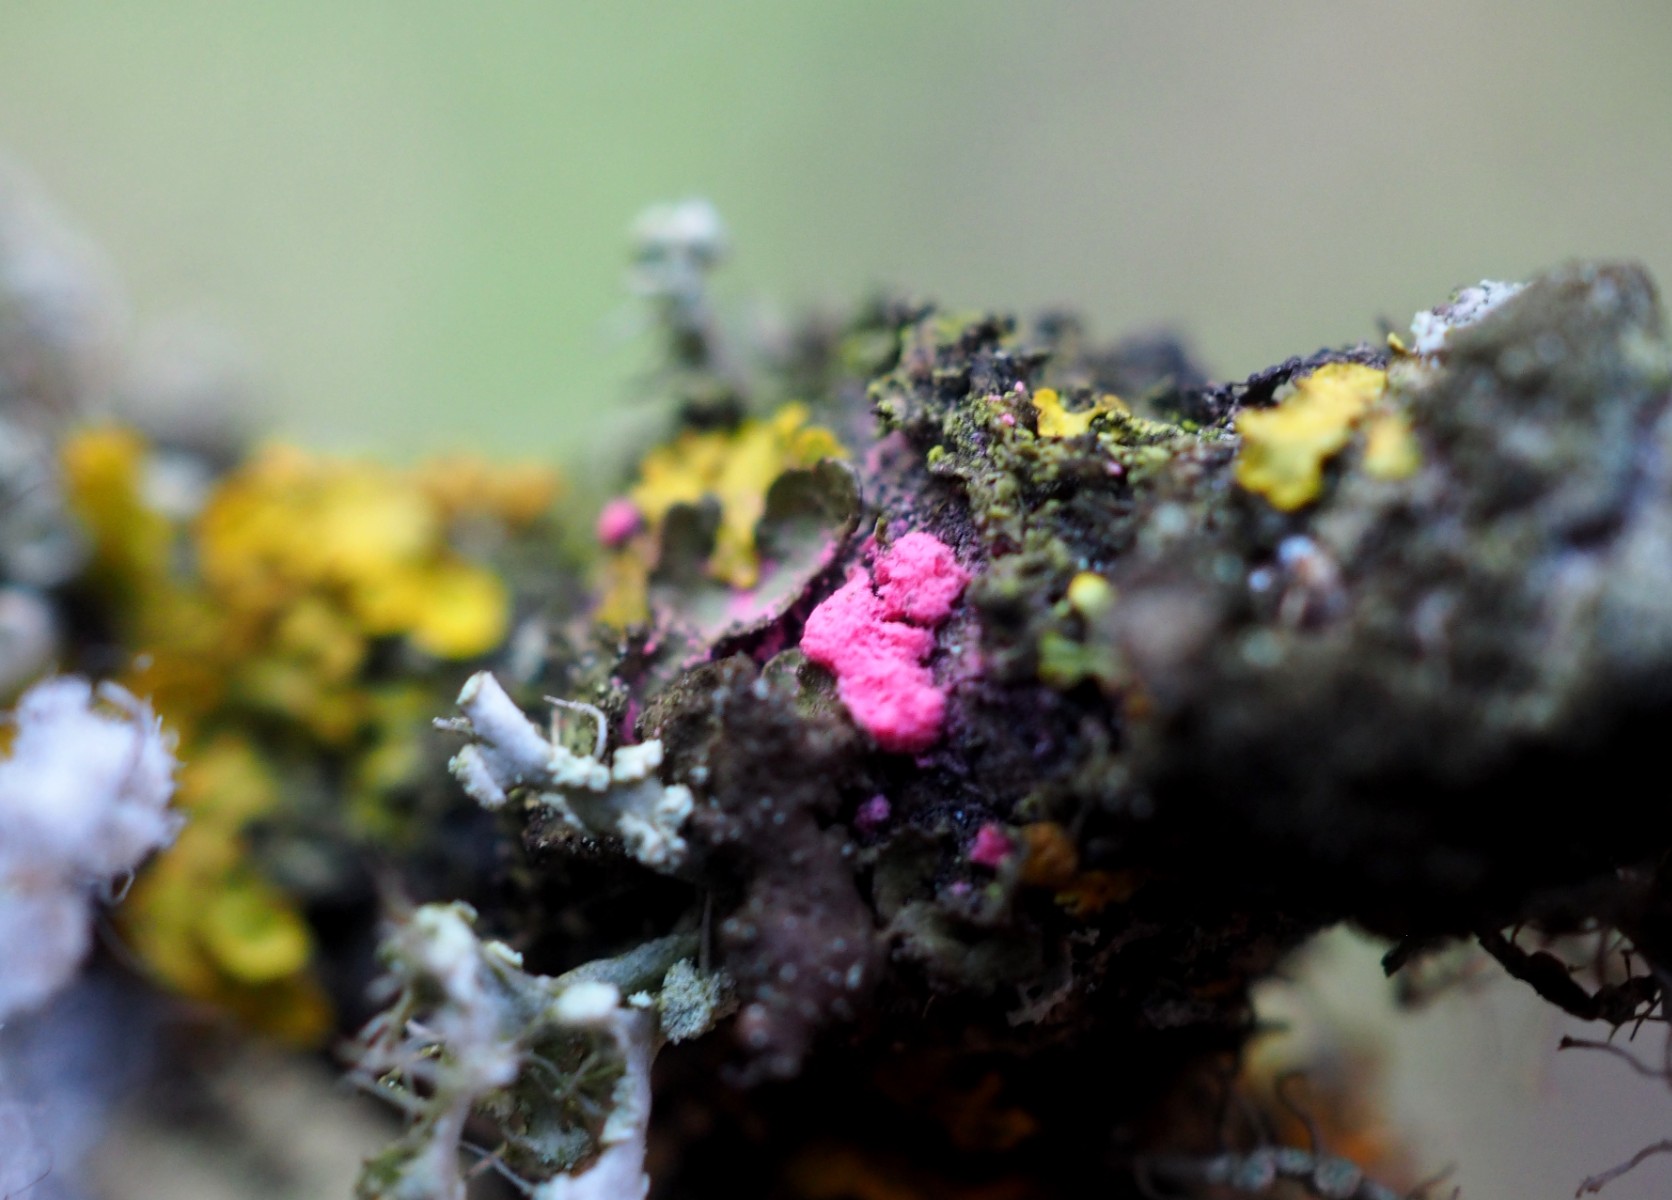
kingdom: Fungi
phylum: Ascomycota
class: Sordariomycetes
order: Hypocreales
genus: Illosporiopsis
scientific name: Illosporiopsis christiansenii
